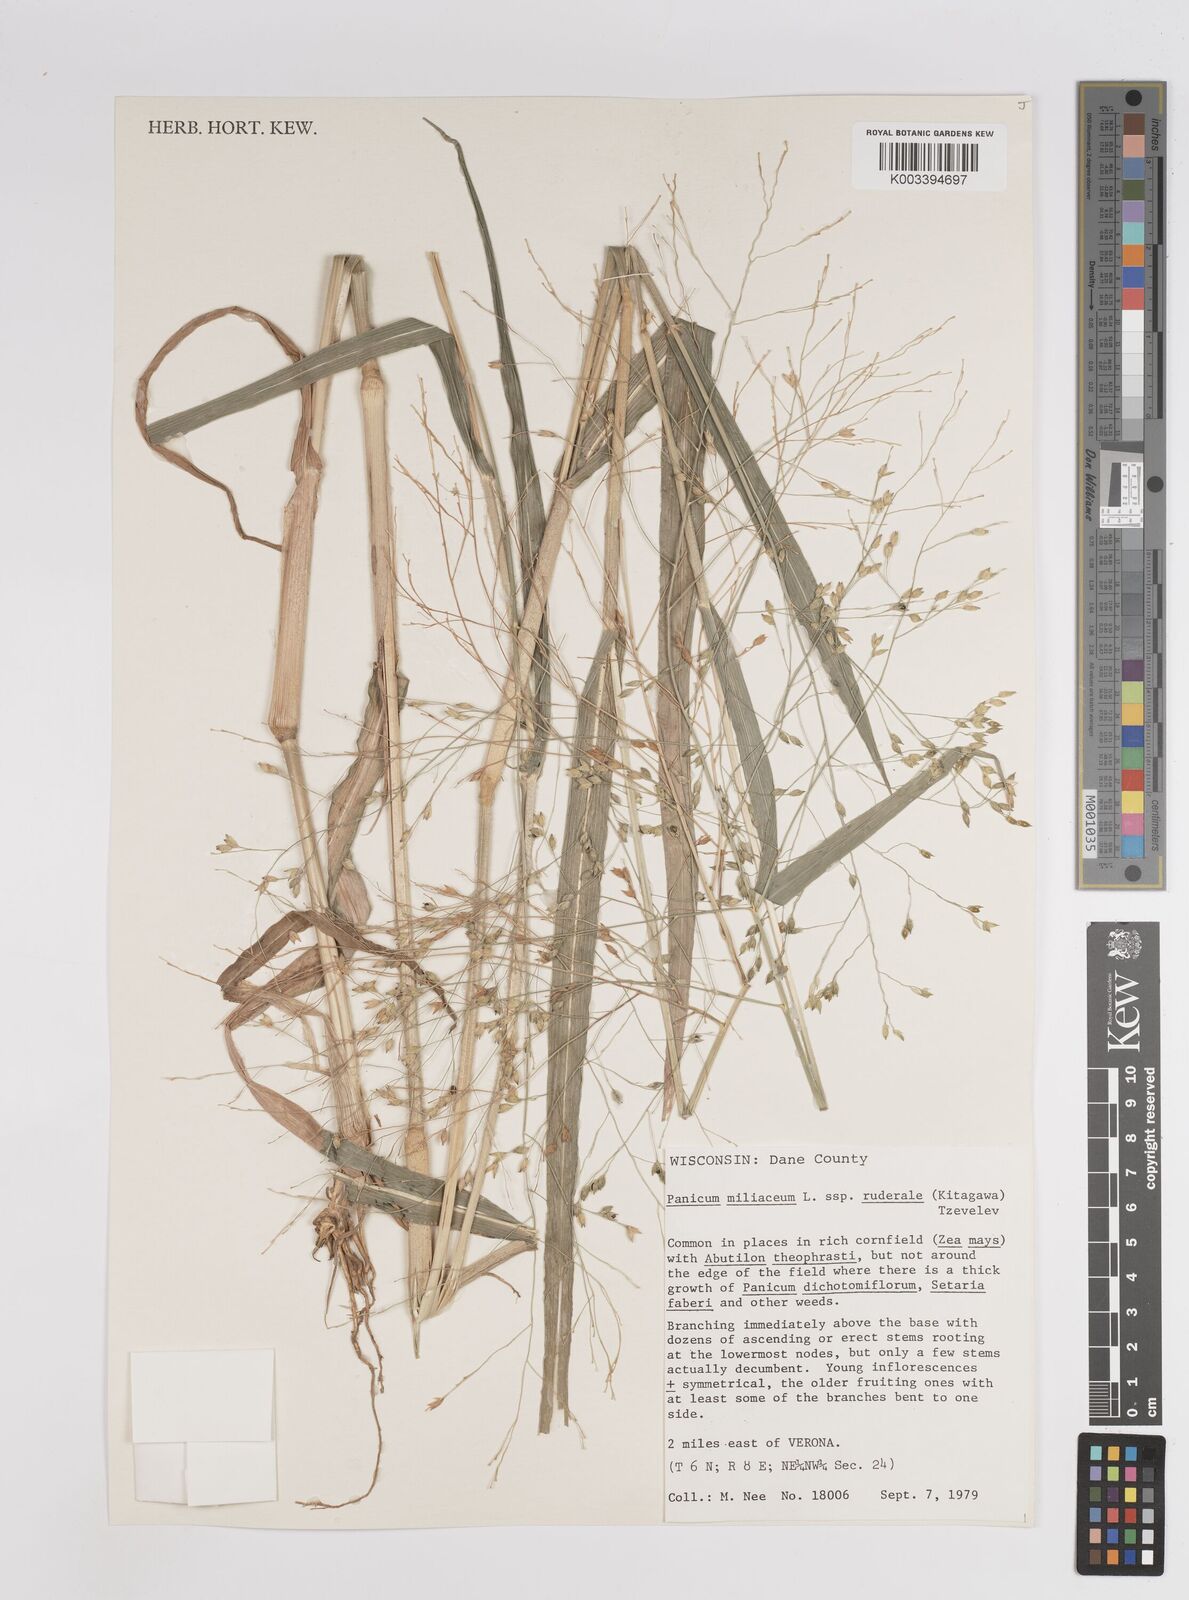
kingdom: Plantae
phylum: Tracheophyta
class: Liliopsida
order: Poales
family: Poaceae
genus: Panicum
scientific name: Panicum miliaceum
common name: Common millet
